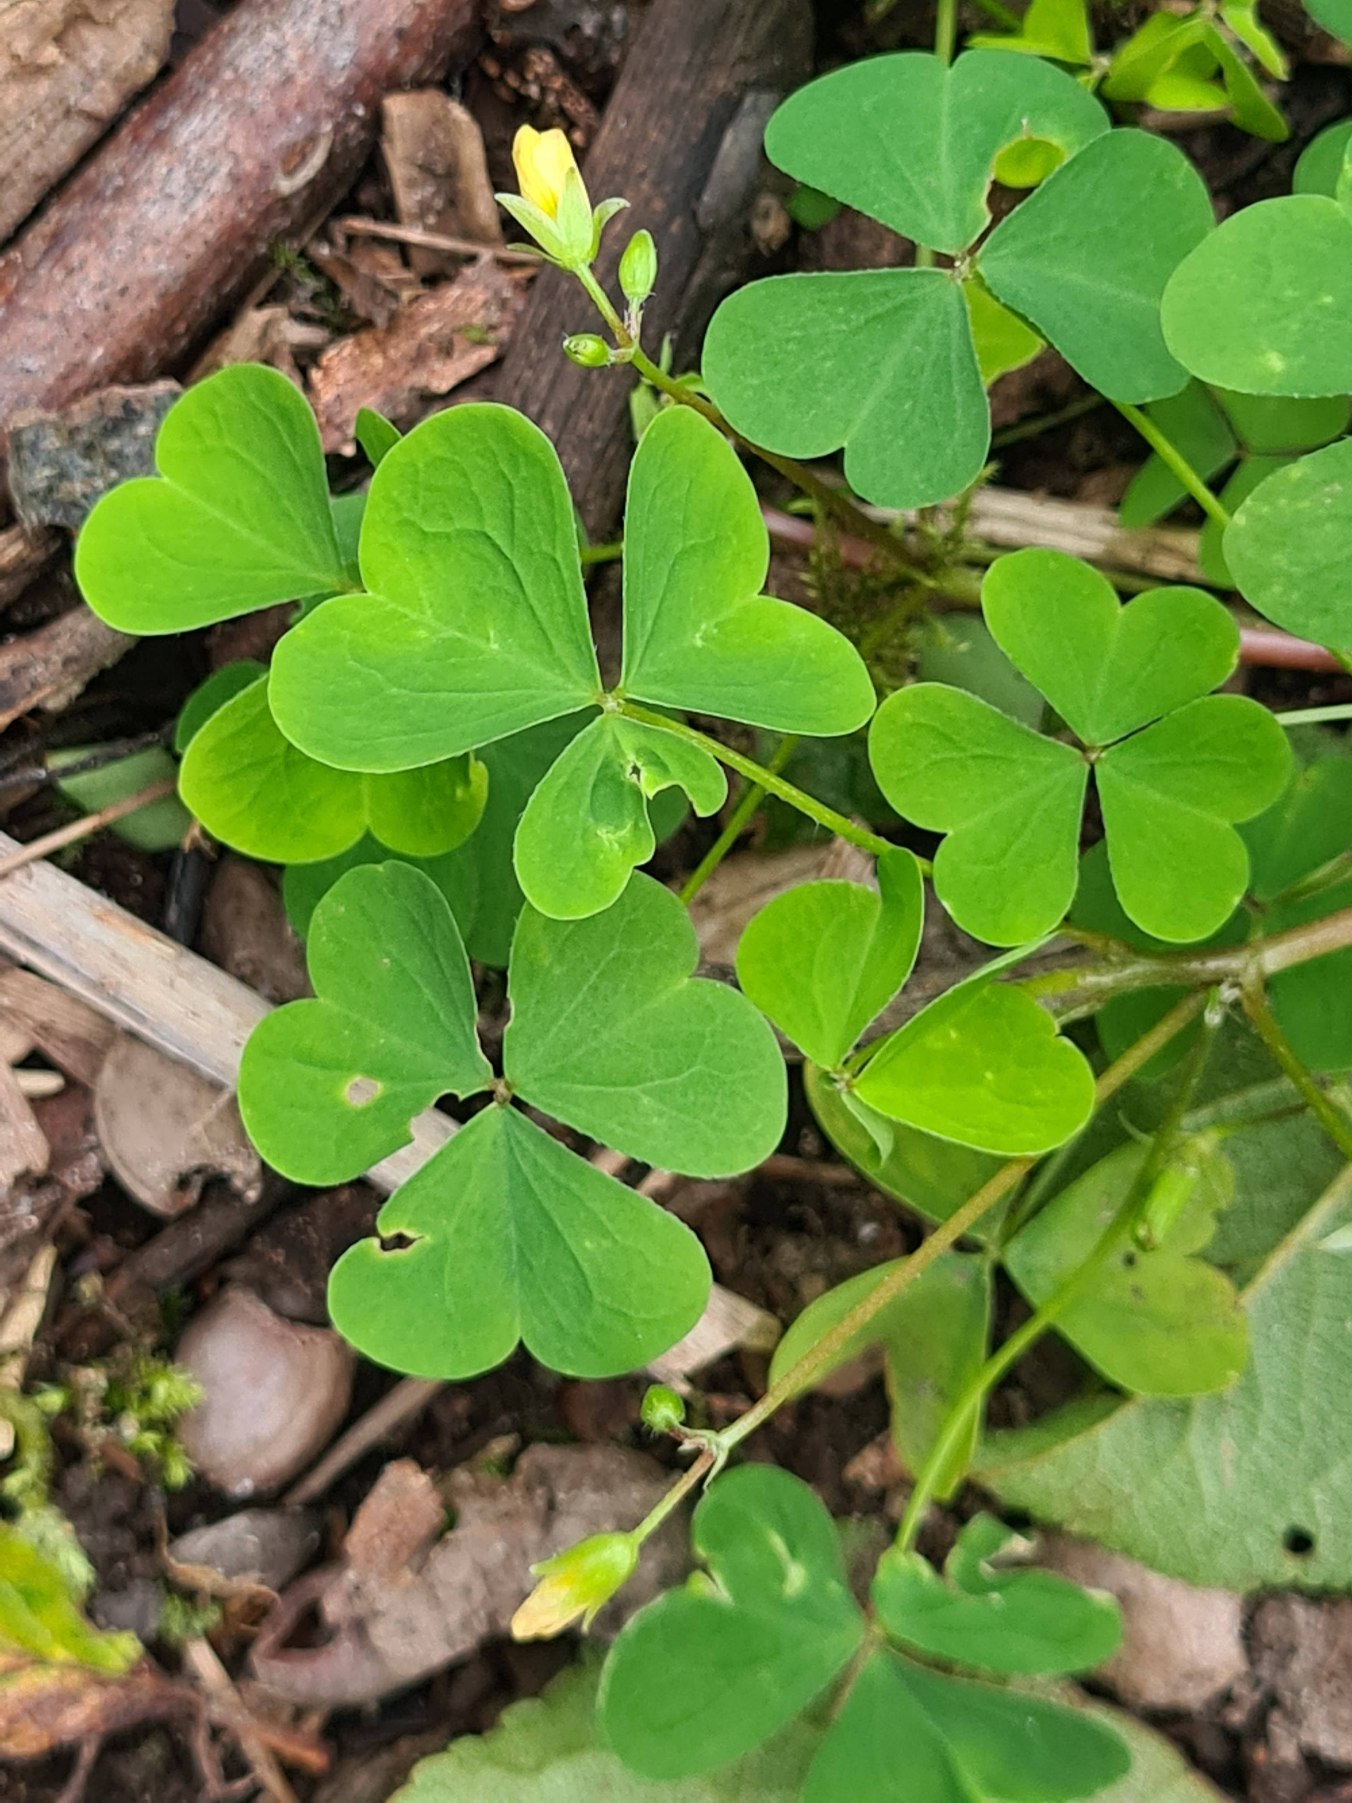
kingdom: Plantae
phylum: Tracheophyta
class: Magnoliopsida
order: Oxalidales
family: Oxalidaceae
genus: Oxalis
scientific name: Oxalis stricta
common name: Rank surkløver
